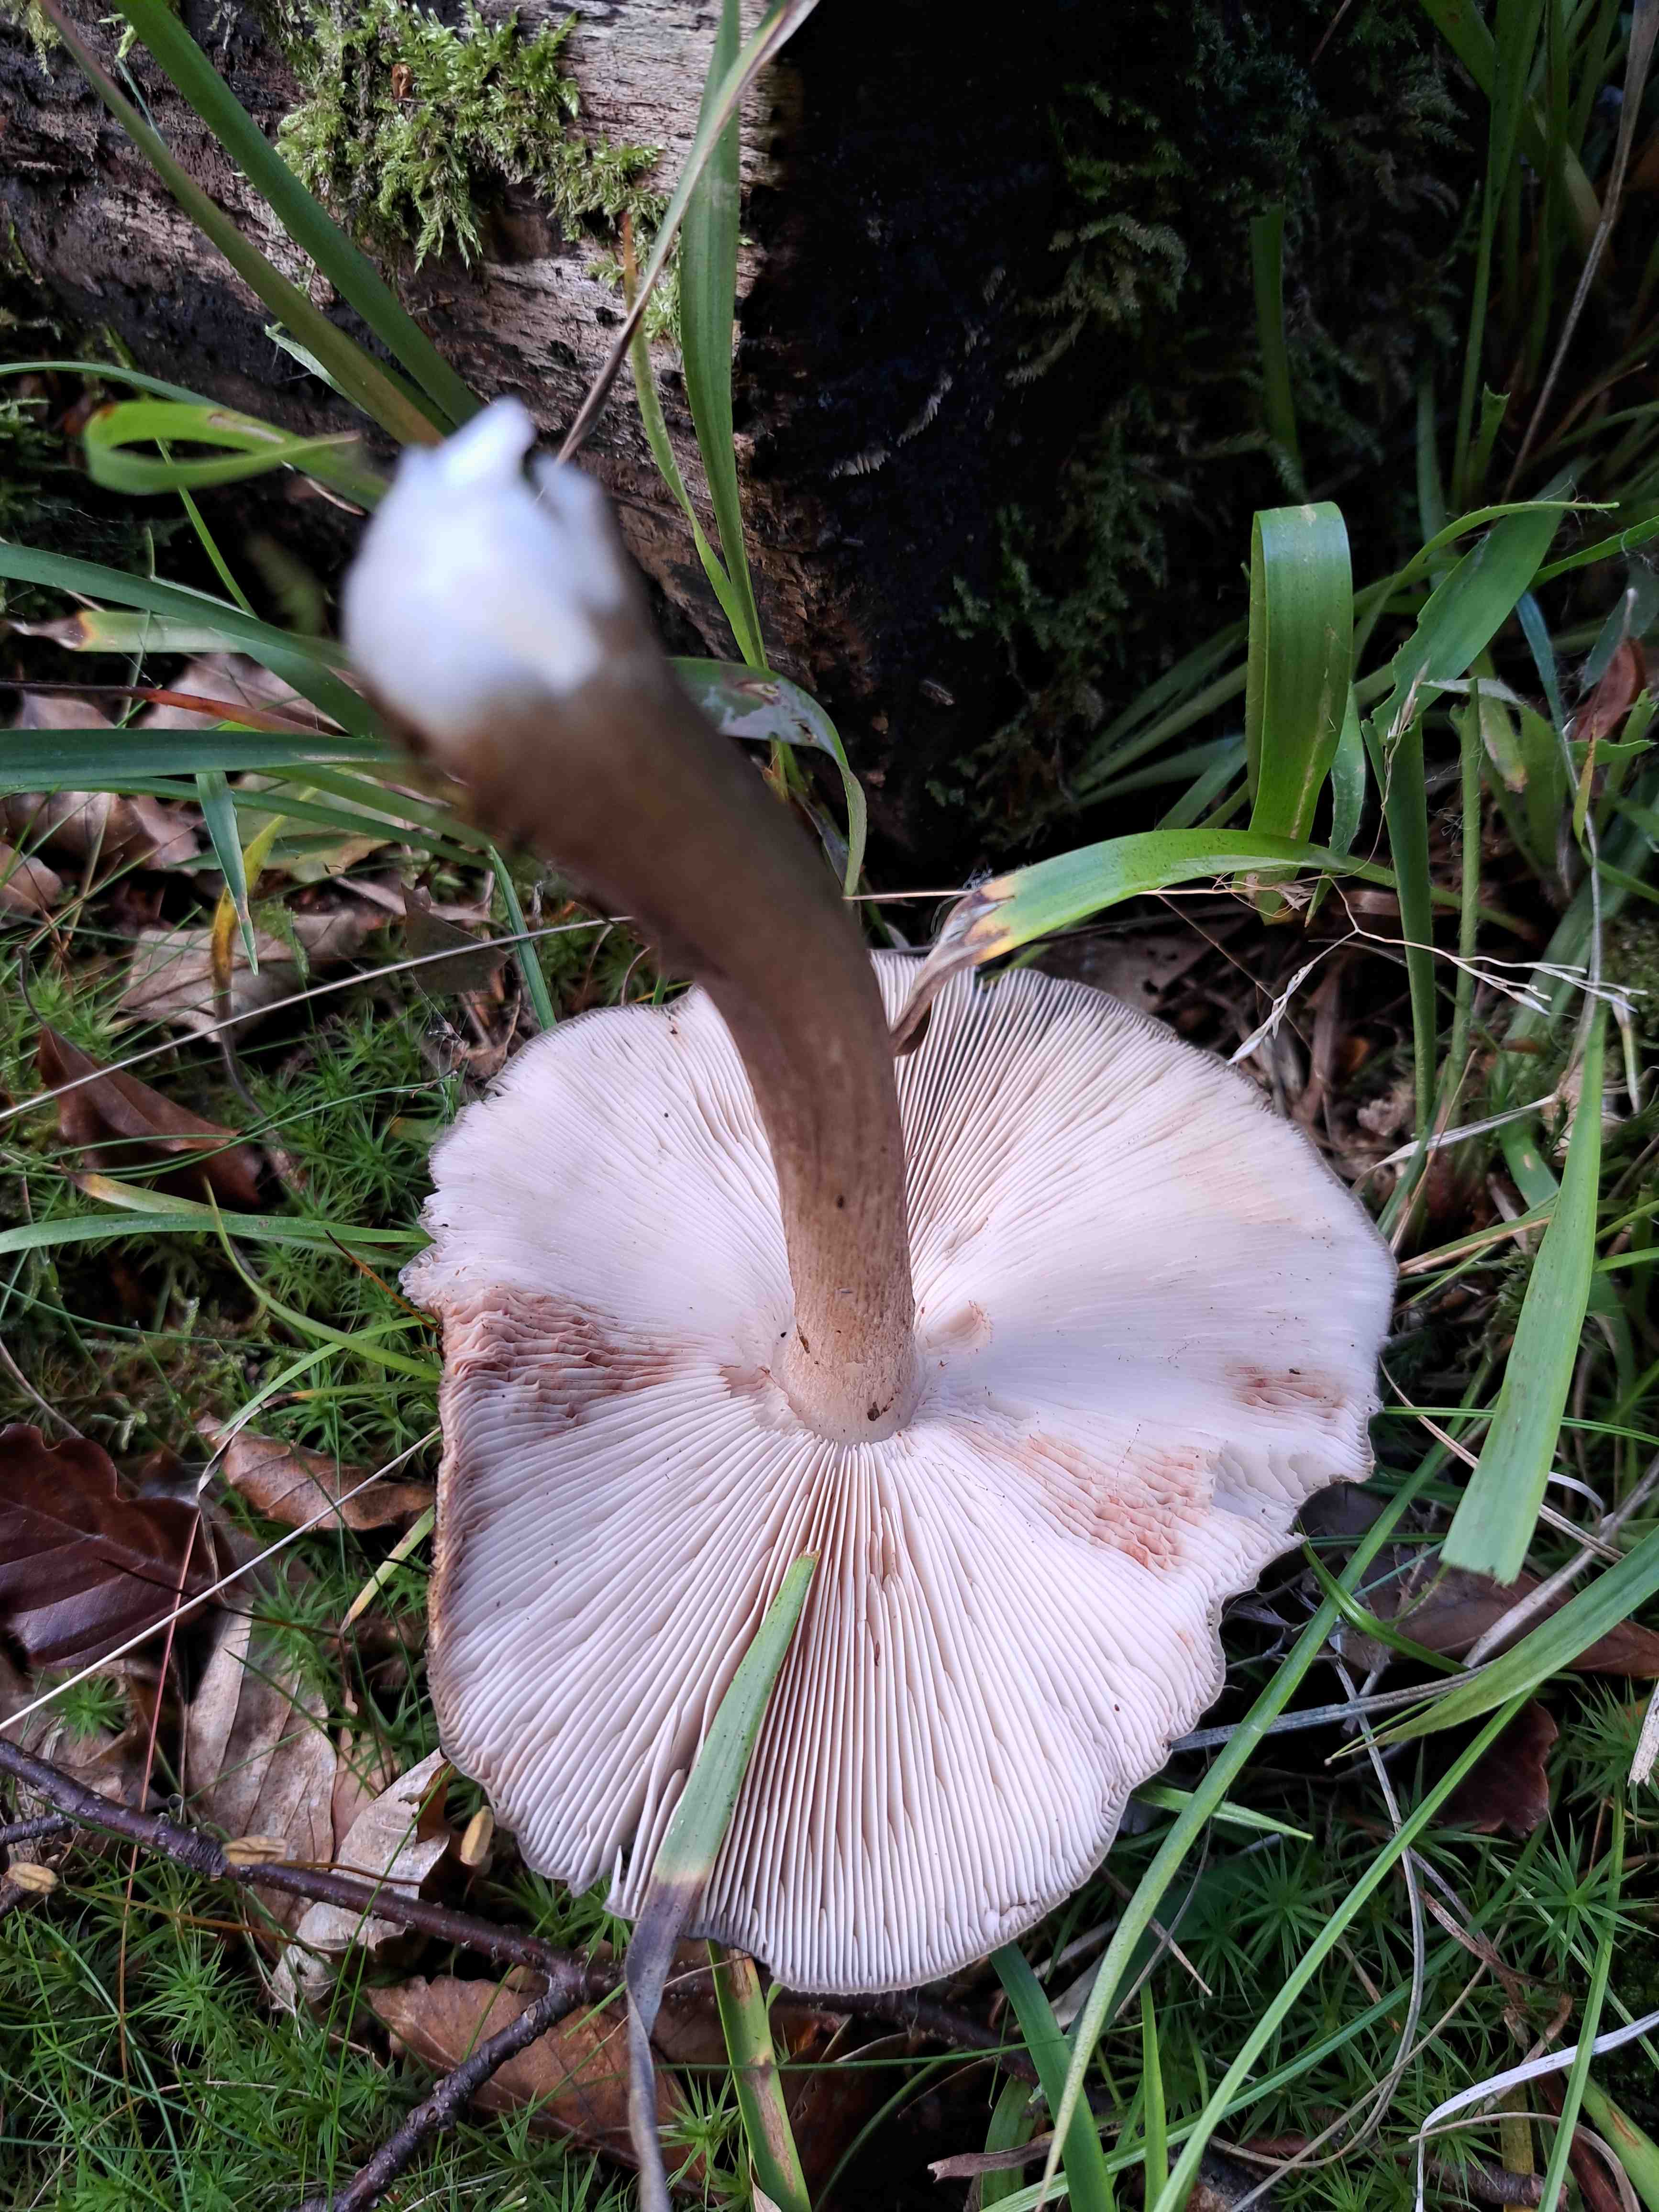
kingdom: Fungi
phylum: Basidiomycota
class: Agaricomycetes
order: Agaricales
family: Pluteaceae
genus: Pluteus
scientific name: Pluteus cervinus
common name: sodfarvet skærmhat
